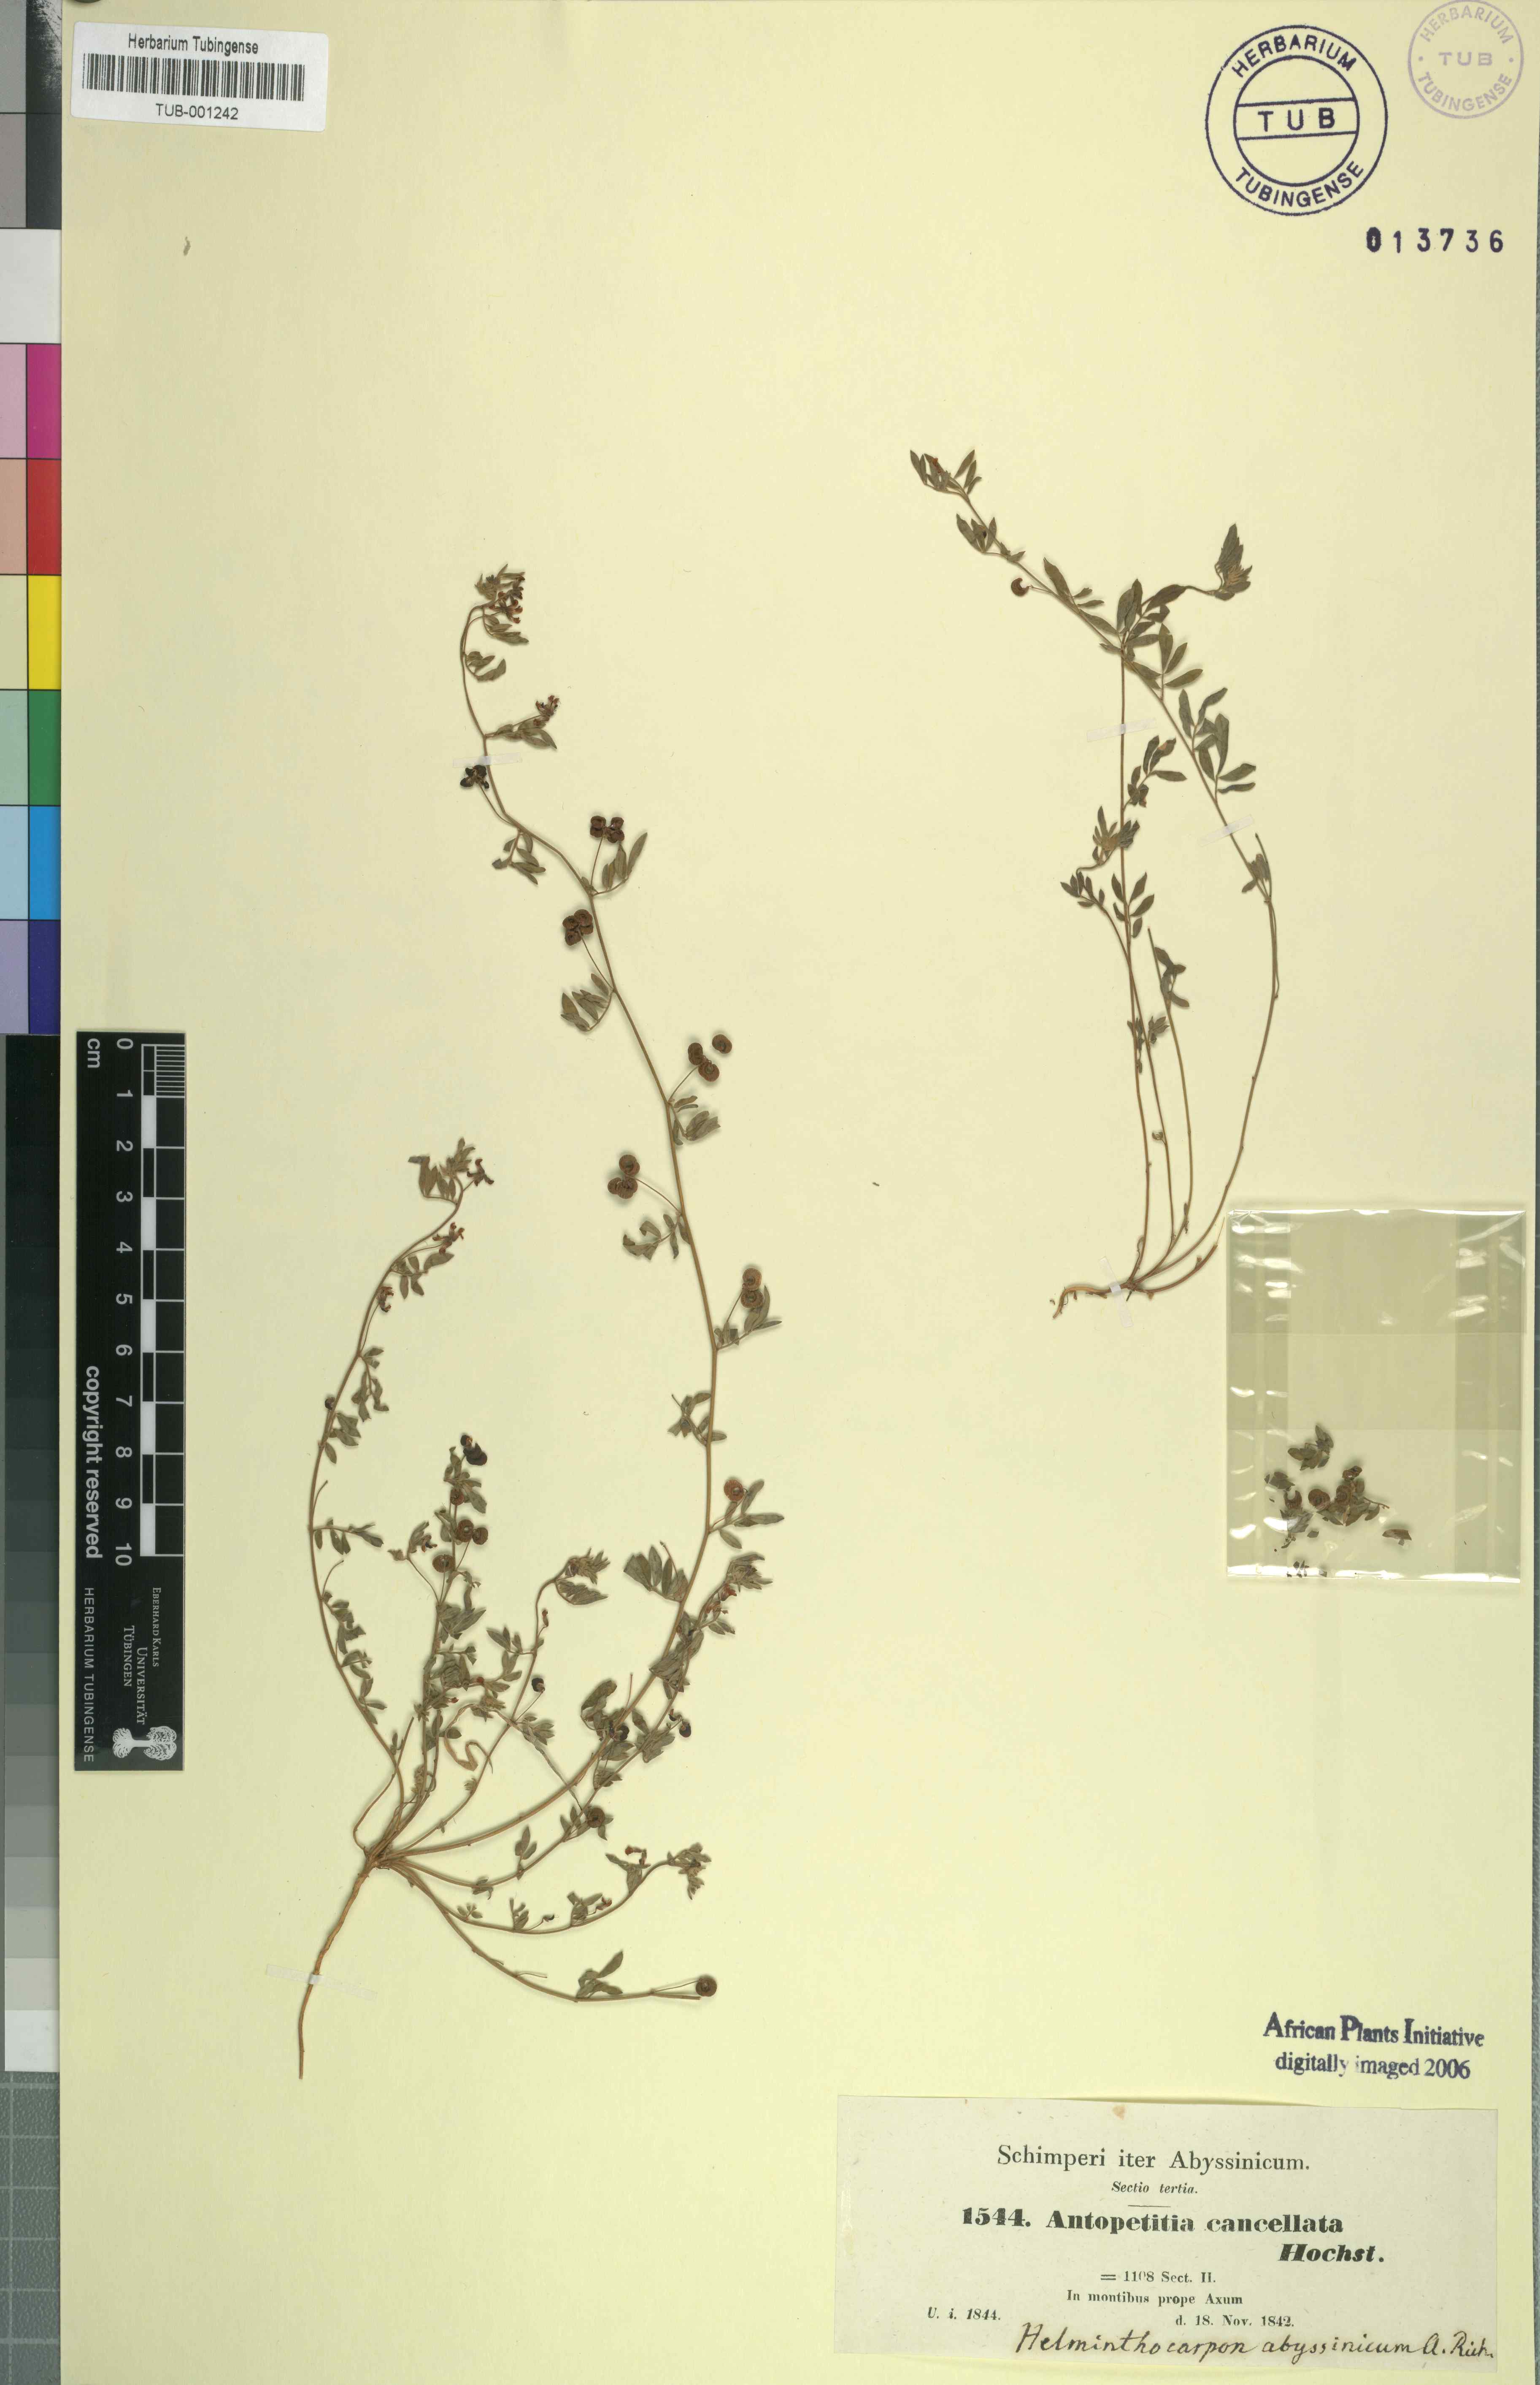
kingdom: Plantae
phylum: Tracheophyta
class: Magnoliopsida
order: Fabales
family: Fabaceae
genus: Helminthocarpum
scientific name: Helminthocarpum abyssinicum
